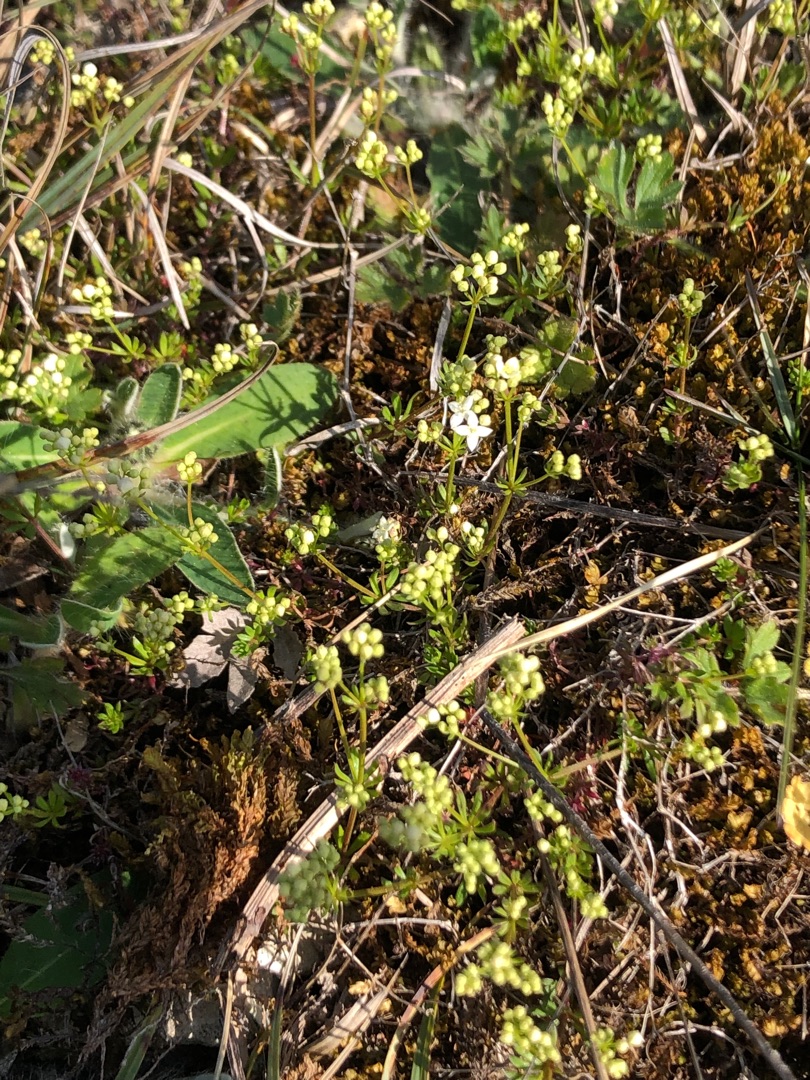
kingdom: Plantae
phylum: Tracheophyta
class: Magnoliopsida
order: Gentianales
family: Rubiaceae
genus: Galium
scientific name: Galium sterneri
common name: Liden snerre
